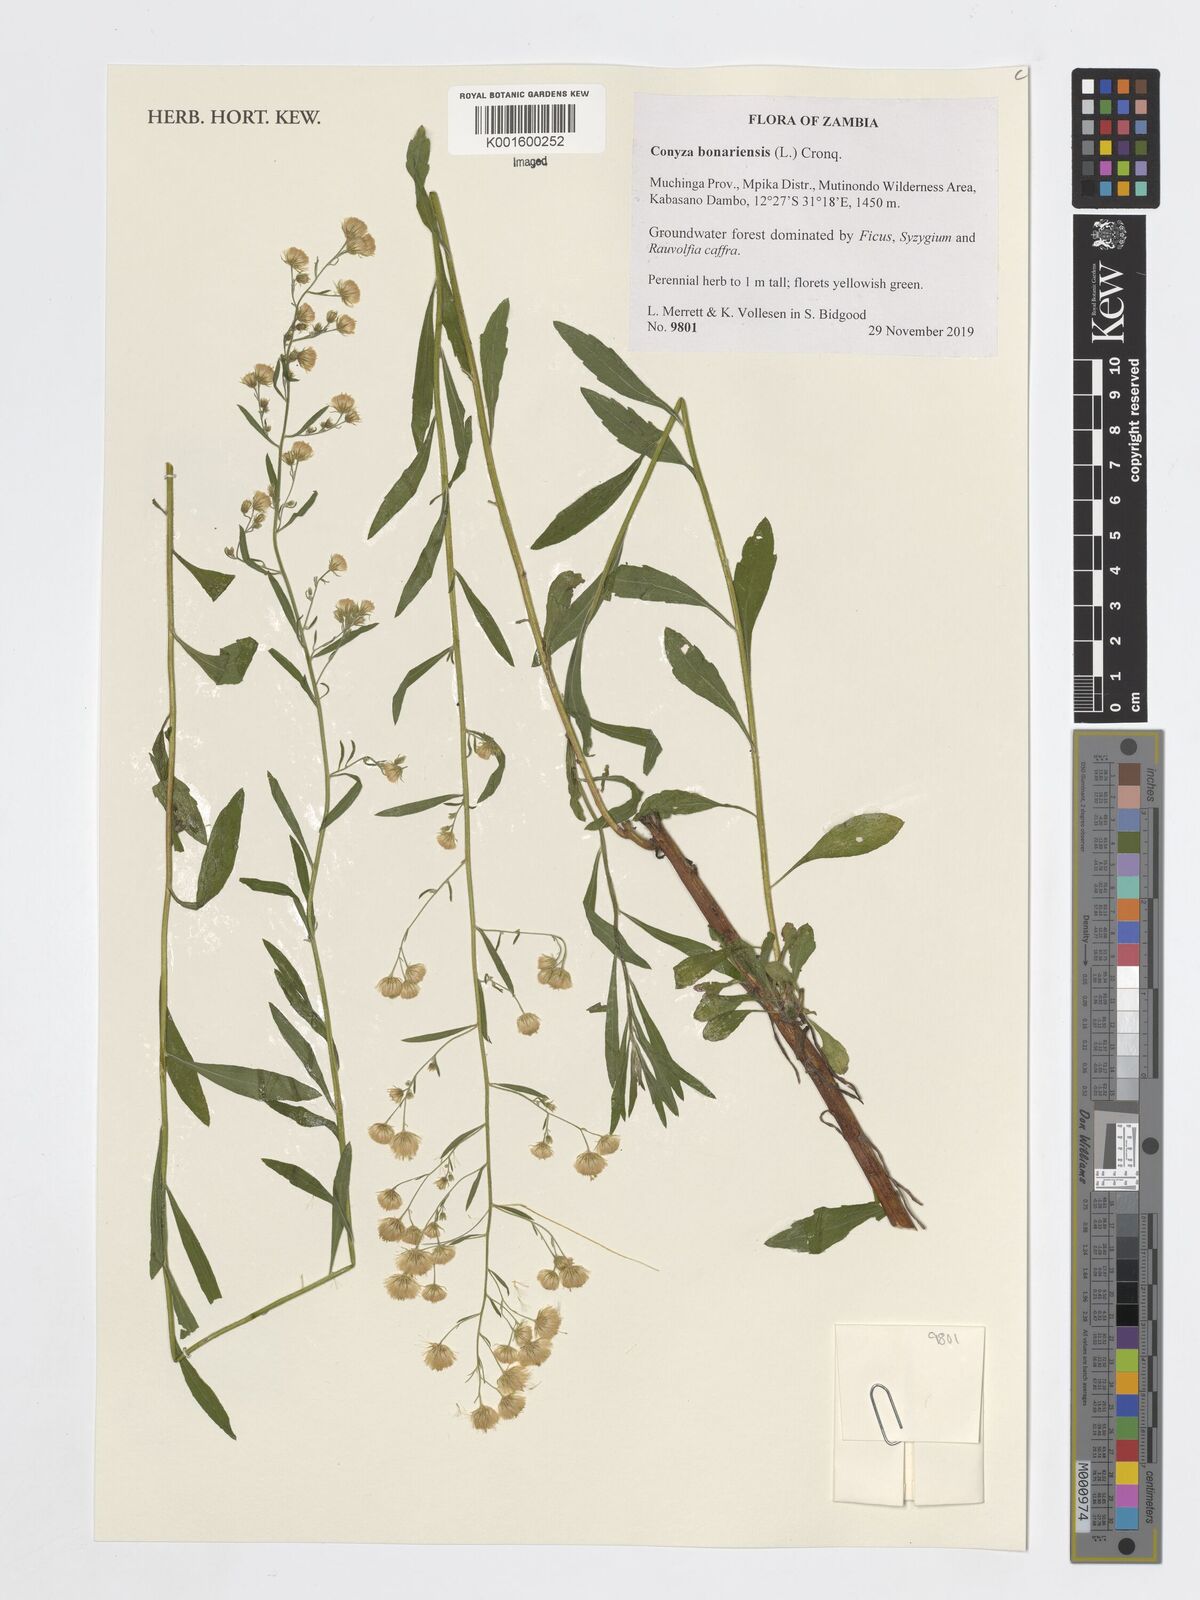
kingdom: Plantae
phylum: Tracheophyta
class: Magnoliopsida
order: Asterales
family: Asteraceae
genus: Erigeron
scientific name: Erigeron bonariensis
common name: Argentine fleabane
